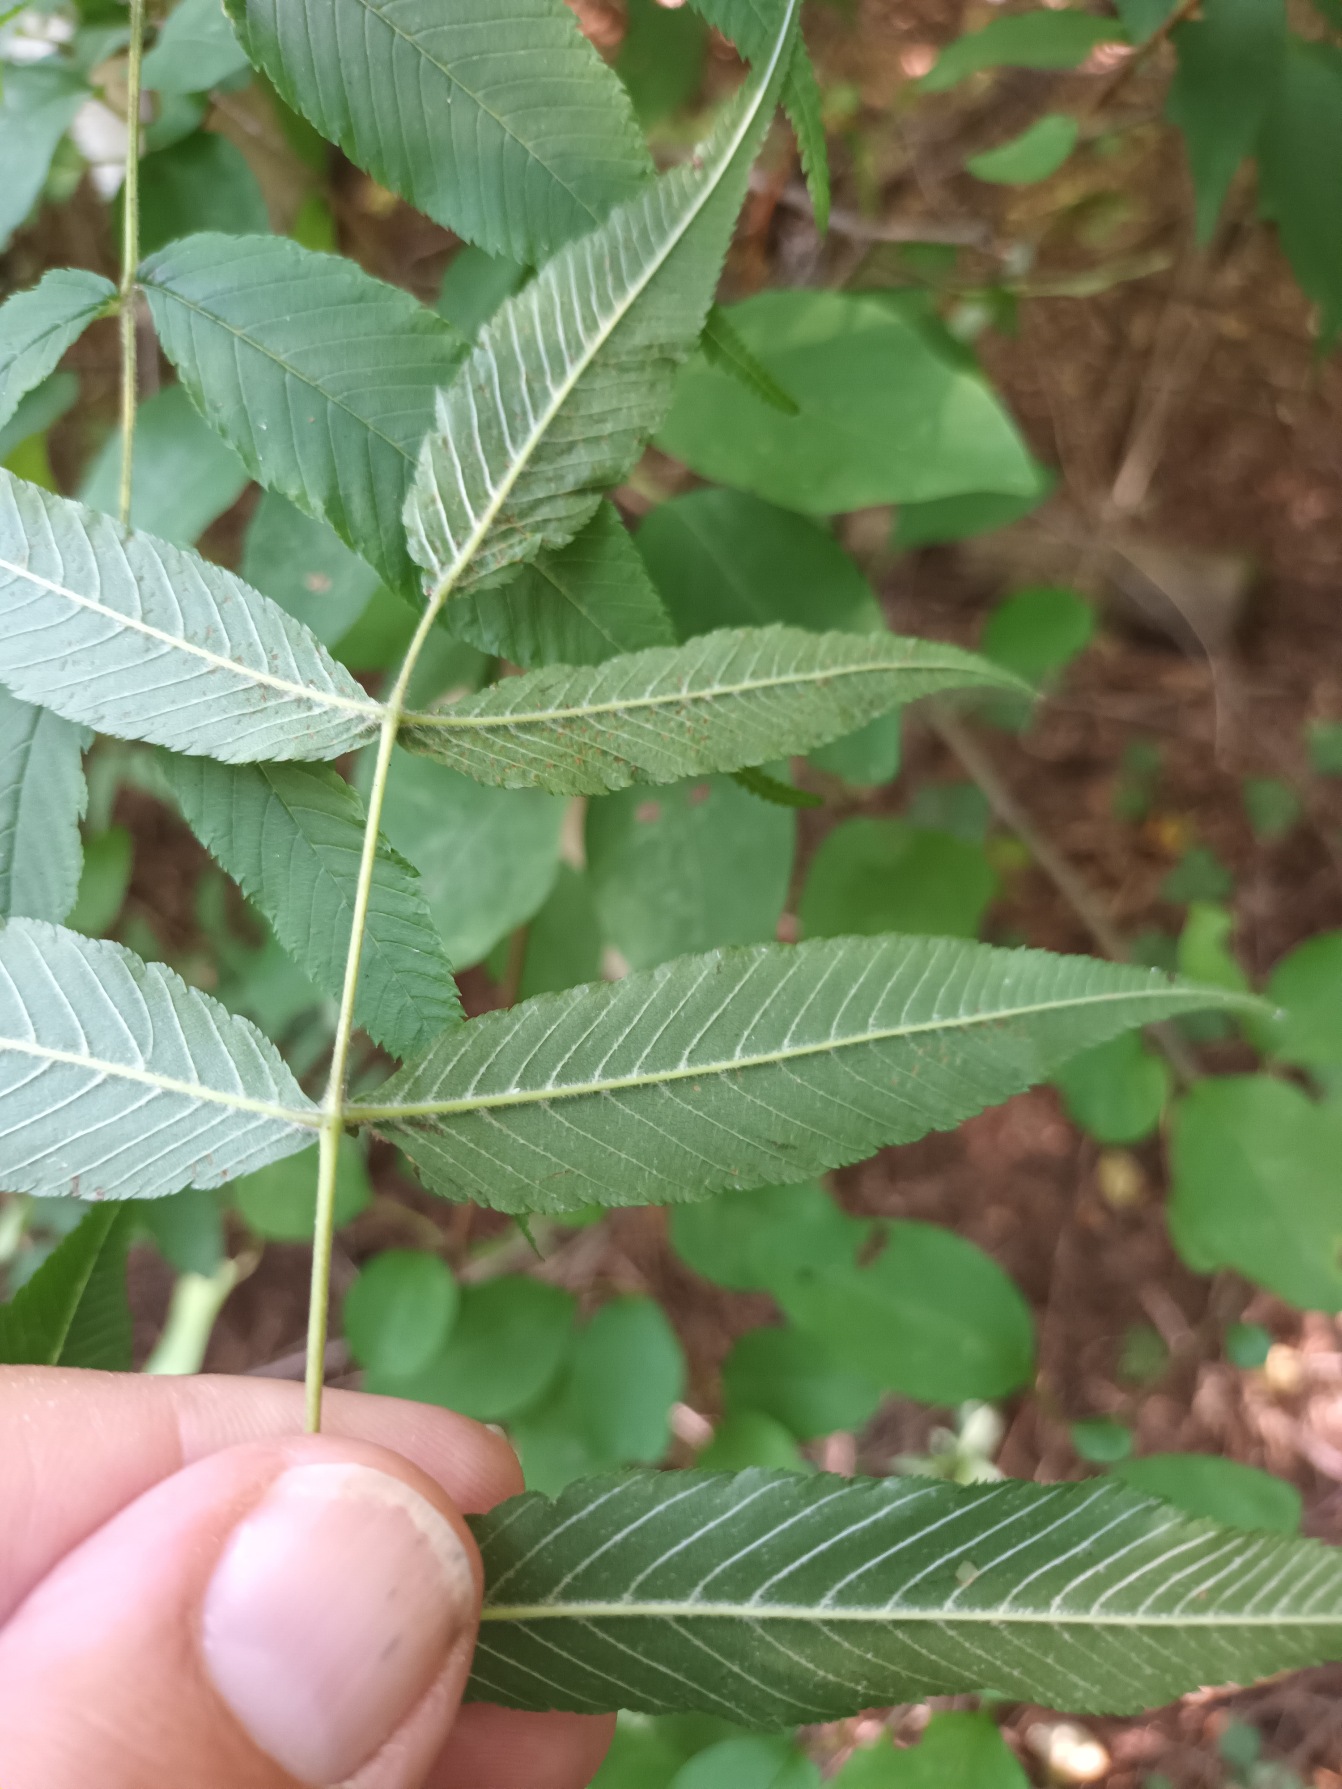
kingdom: Plantae
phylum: Tracheophyta
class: Magnoliopsida
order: Rosales
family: Rosaceae
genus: Sorbaria
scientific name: Sorbaria tomentosa
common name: Kashmir-tusindtop
